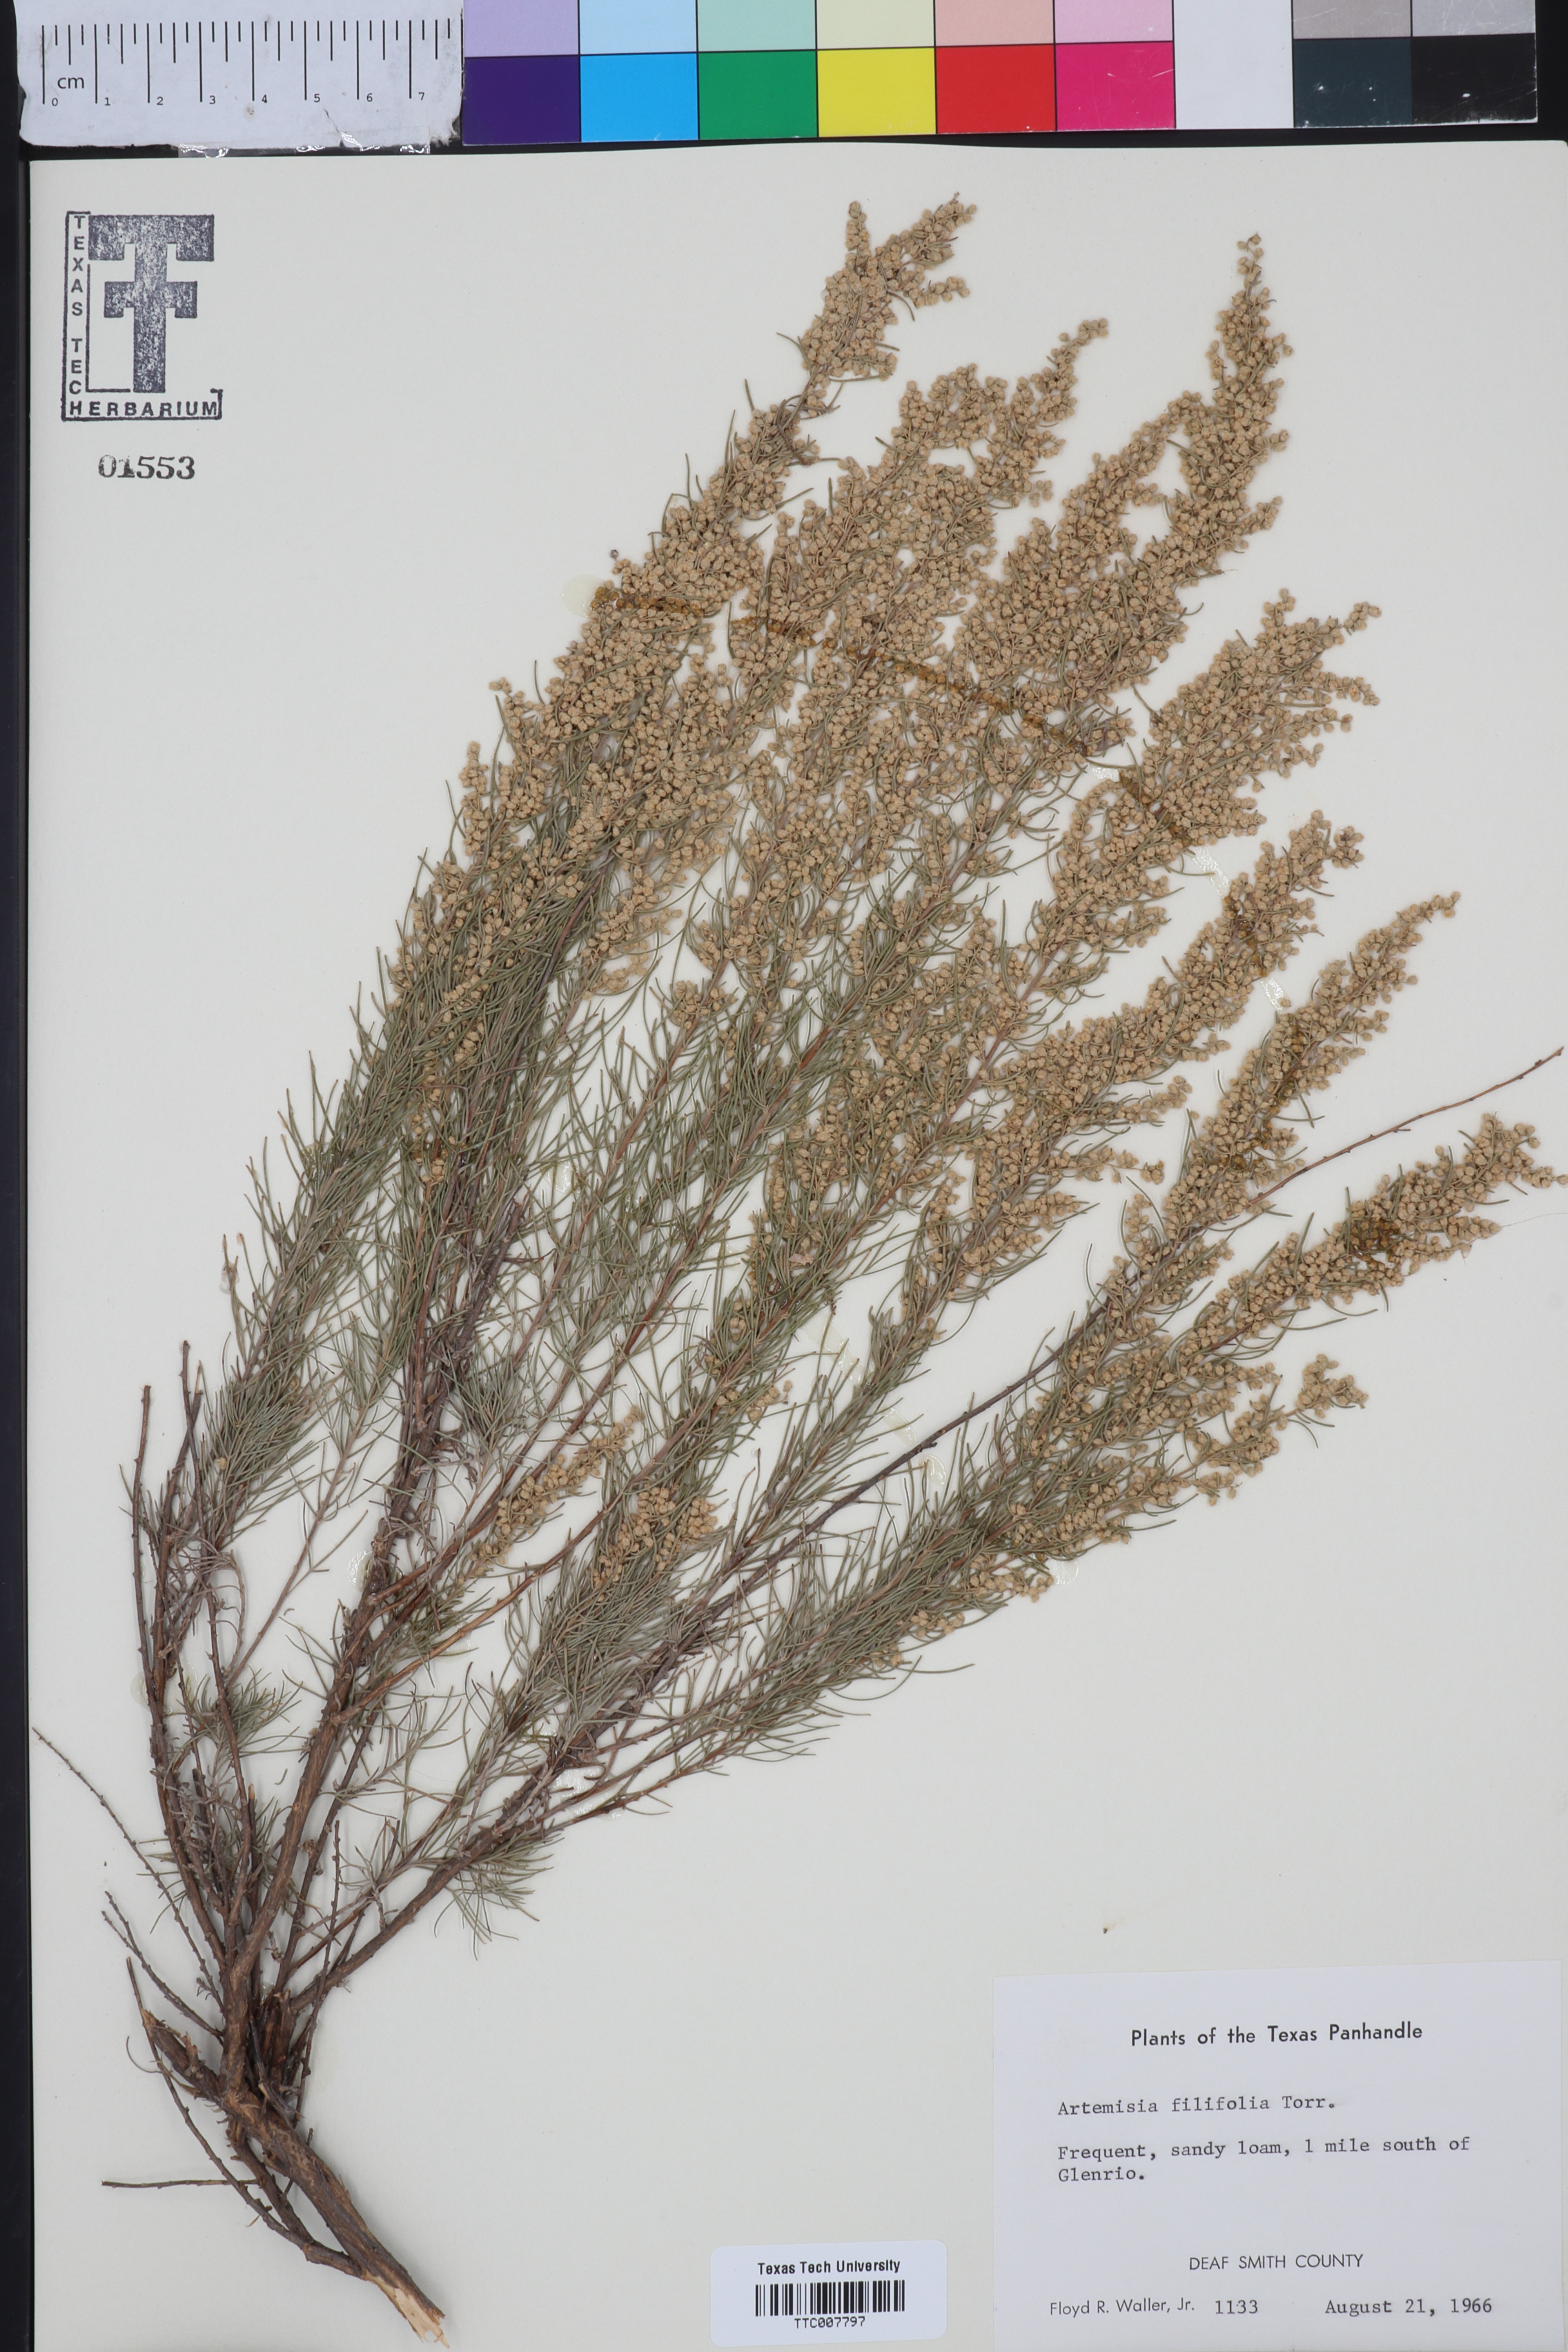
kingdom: Plantae
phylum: Tracheophyta
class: Magnoliopsida
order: Asterales
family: Asteraceae
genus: Artemisia
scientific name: Artemisia filifolia
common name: Sand-sage
